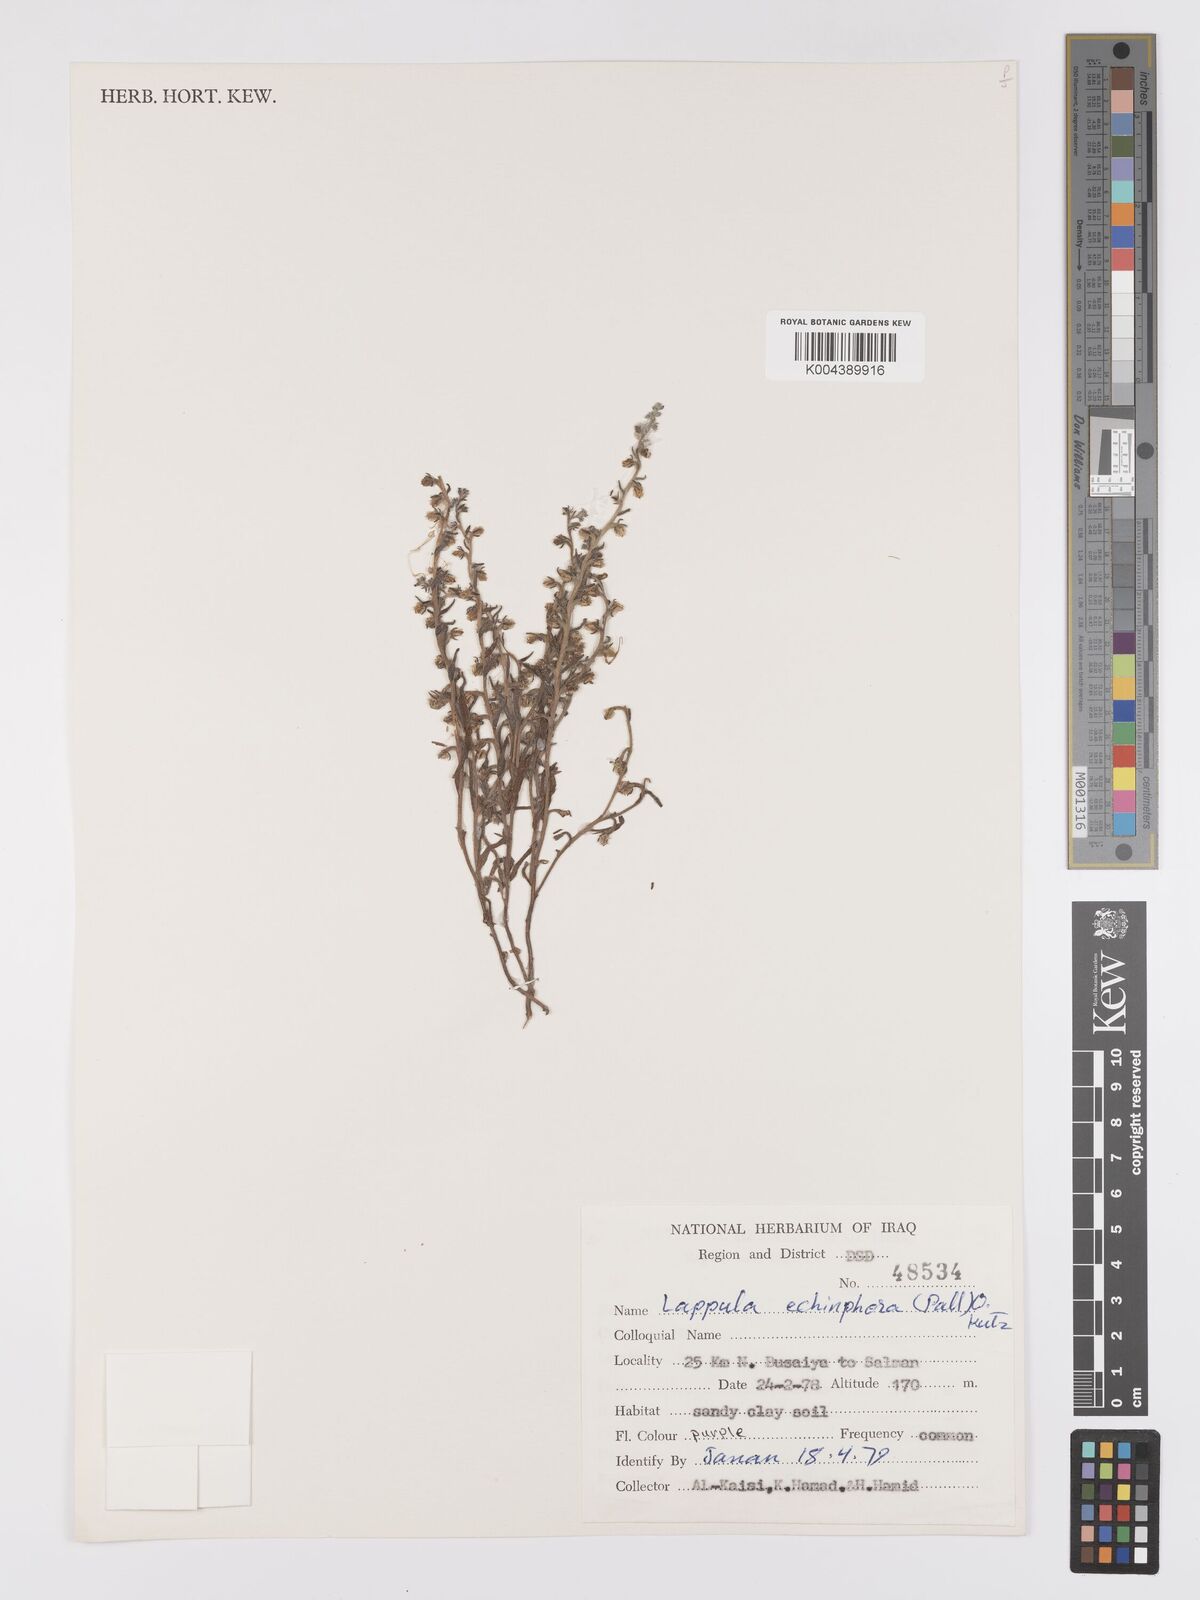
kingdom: Plantae
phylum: Tracheophyta
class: Magnoliopsida
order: Boraginales
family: Boraginaceae
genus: Heterocaryum
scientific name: Heterocaryum echinophorum
